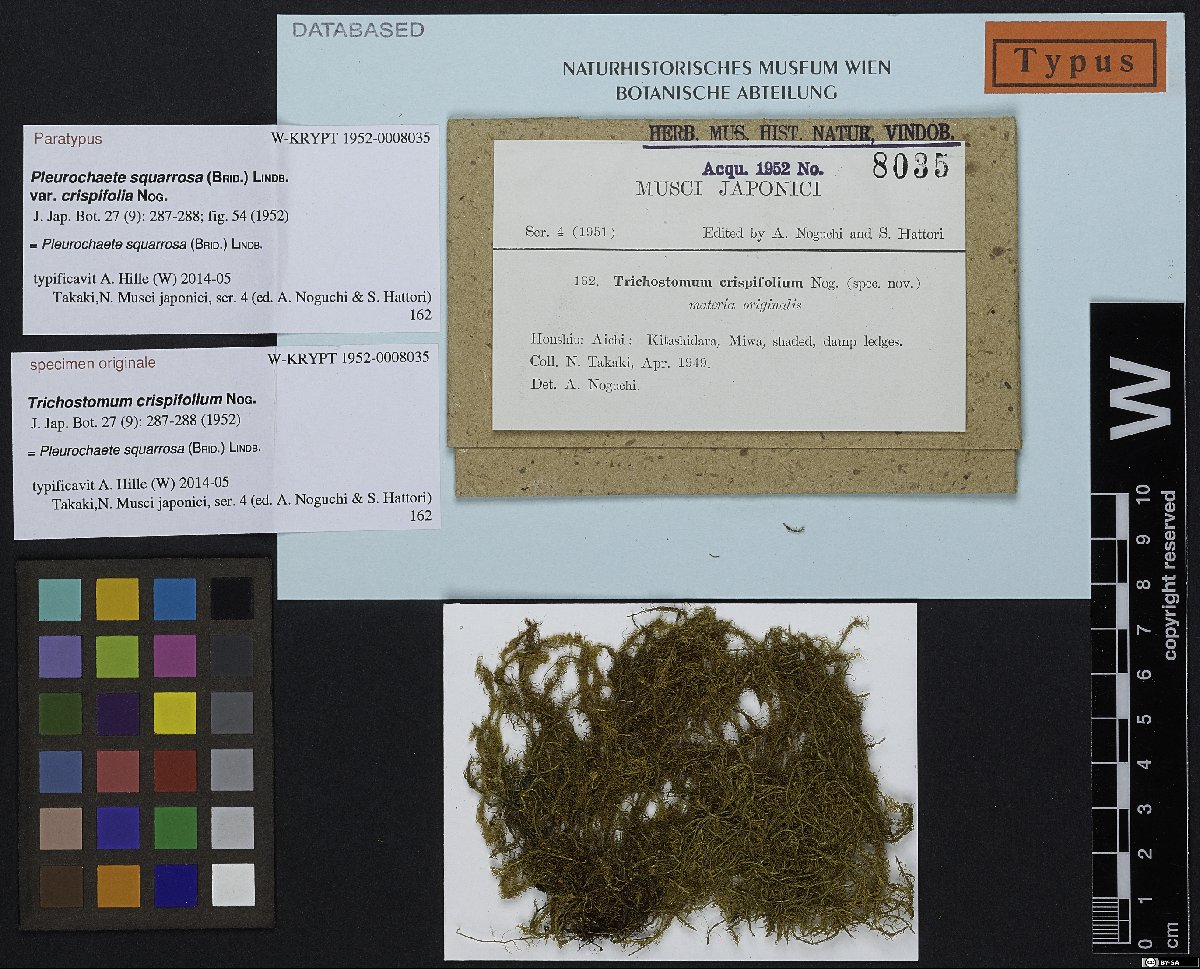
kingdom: Plantae
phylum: Bryophyta
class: Bryopsida
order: Pottiales
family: Pottiaceae
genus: Chionoloma
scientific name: Chionoloma angustatum
